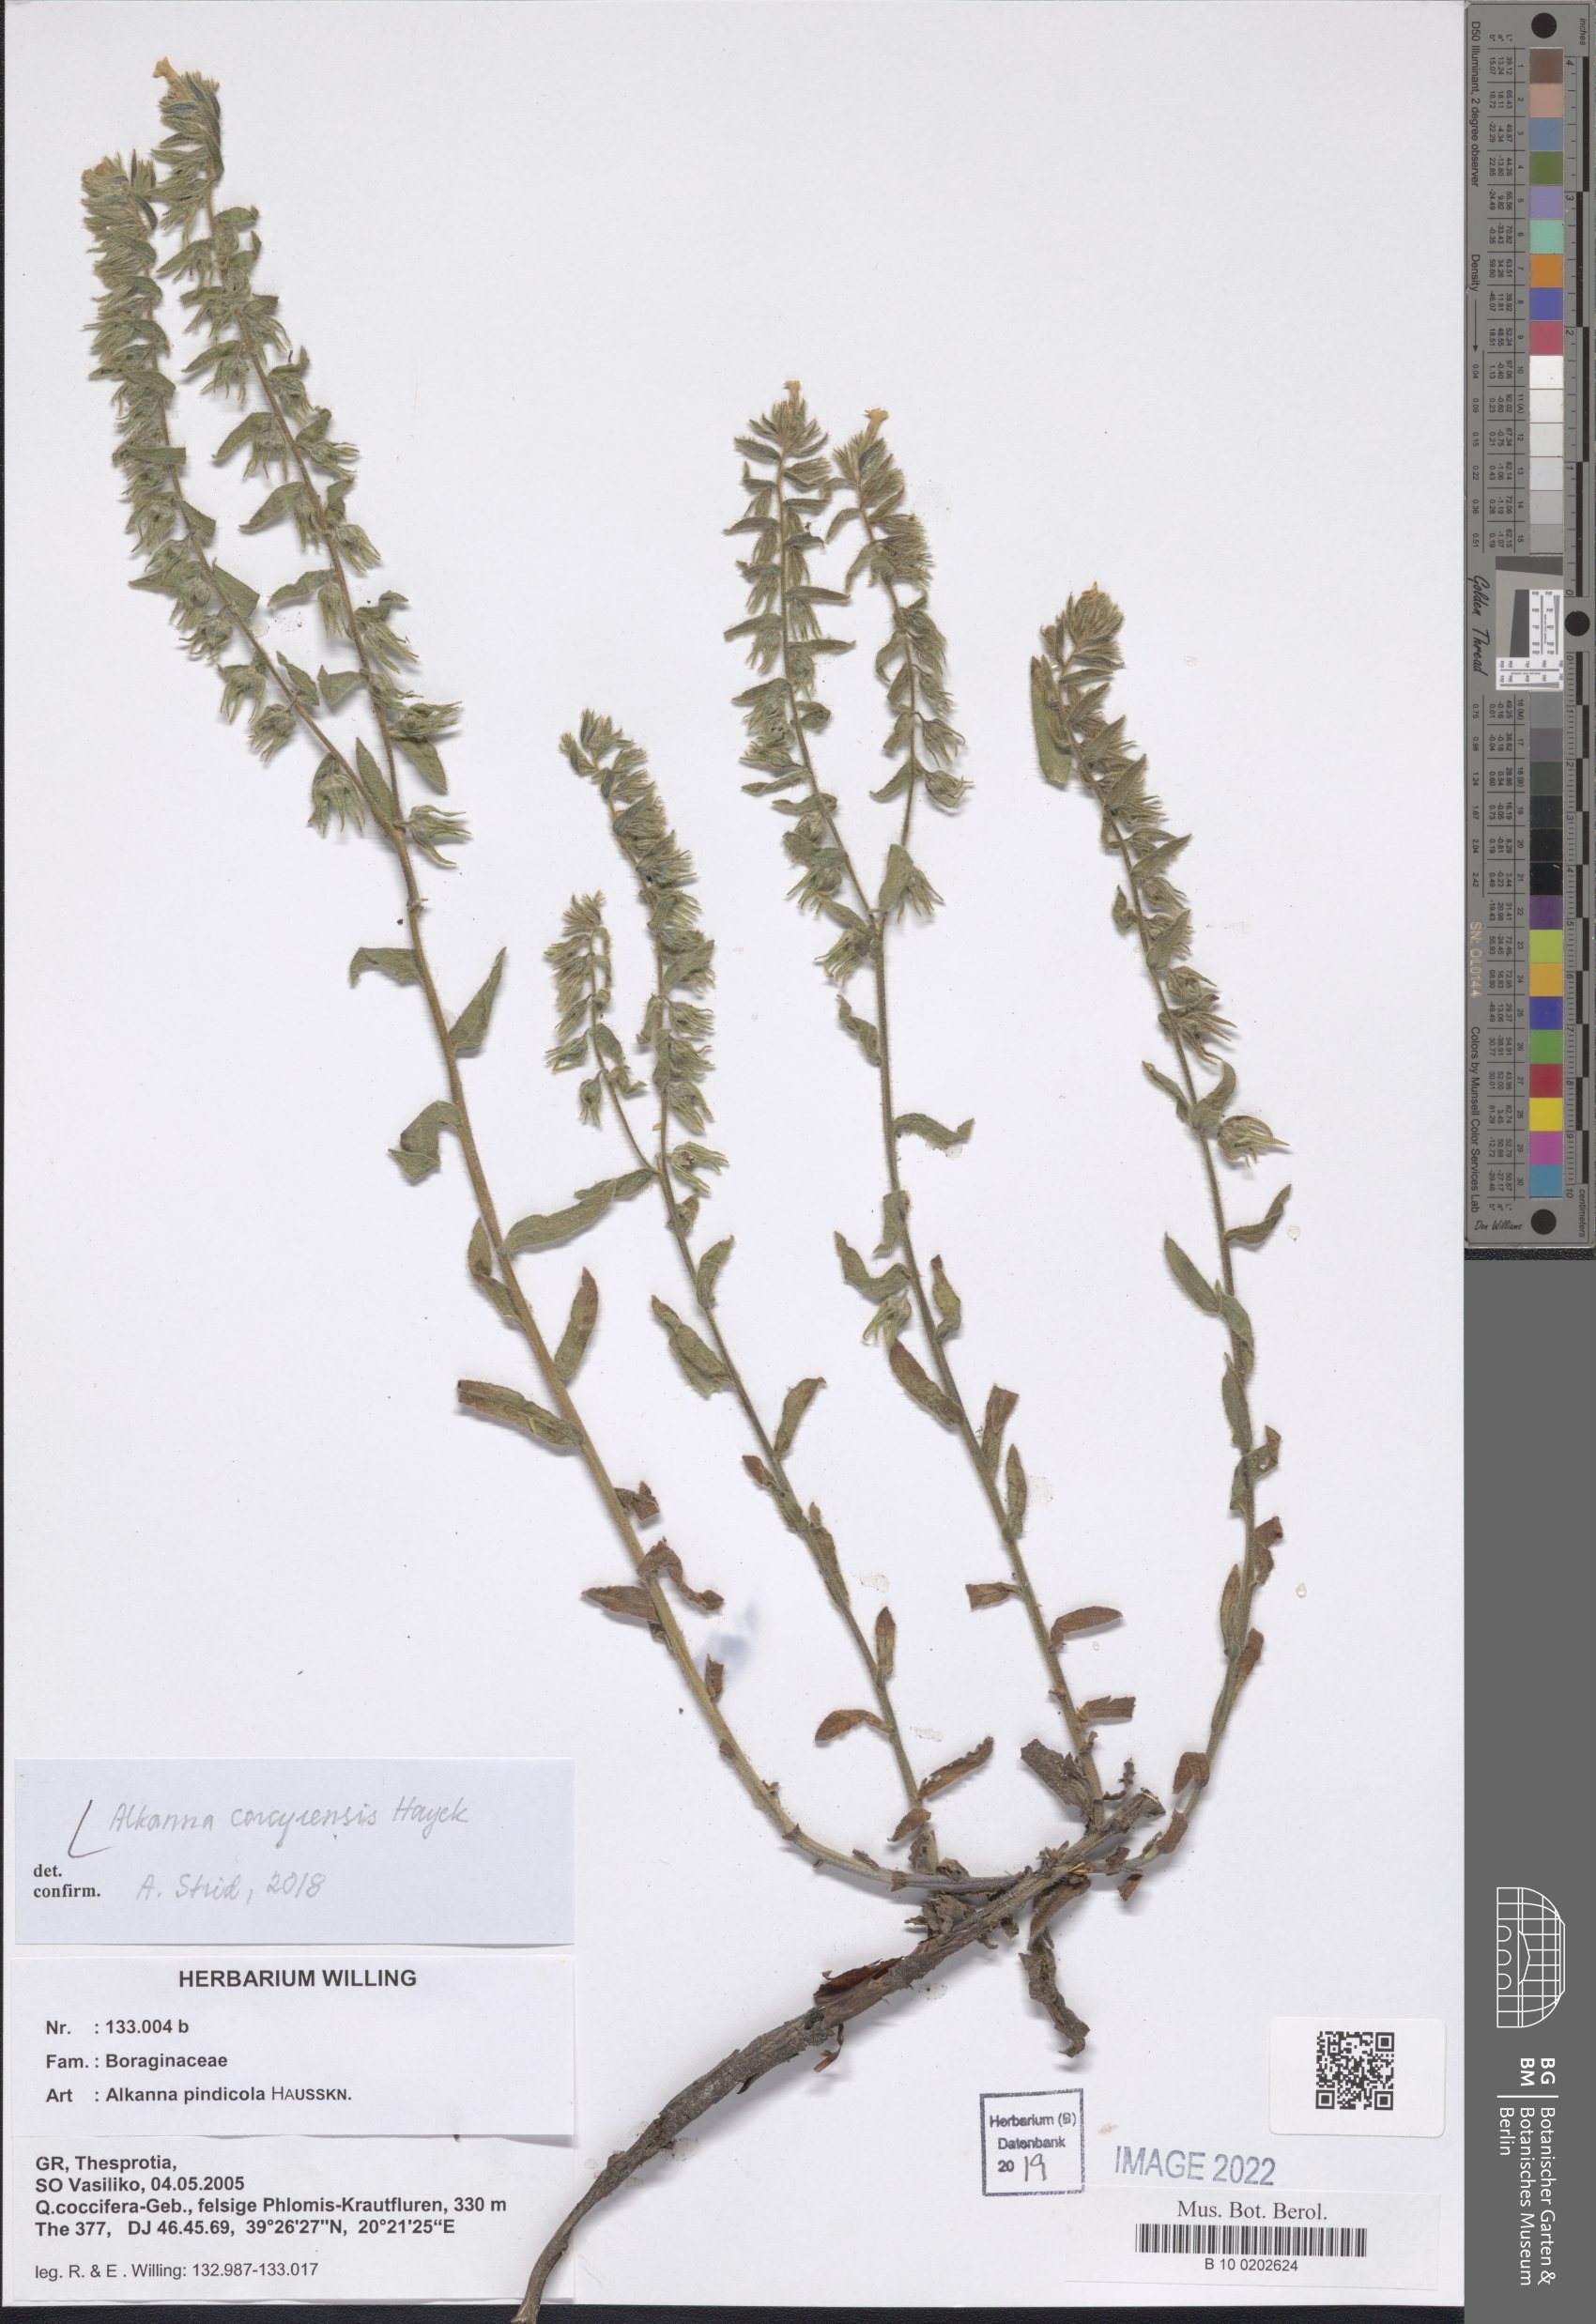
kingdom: Plantae
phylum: Tracheophyta
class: Magnoliopsida
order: Boraginales
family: Boraginaceae
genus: Alkanna
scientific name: Alkanna corcyrensis
